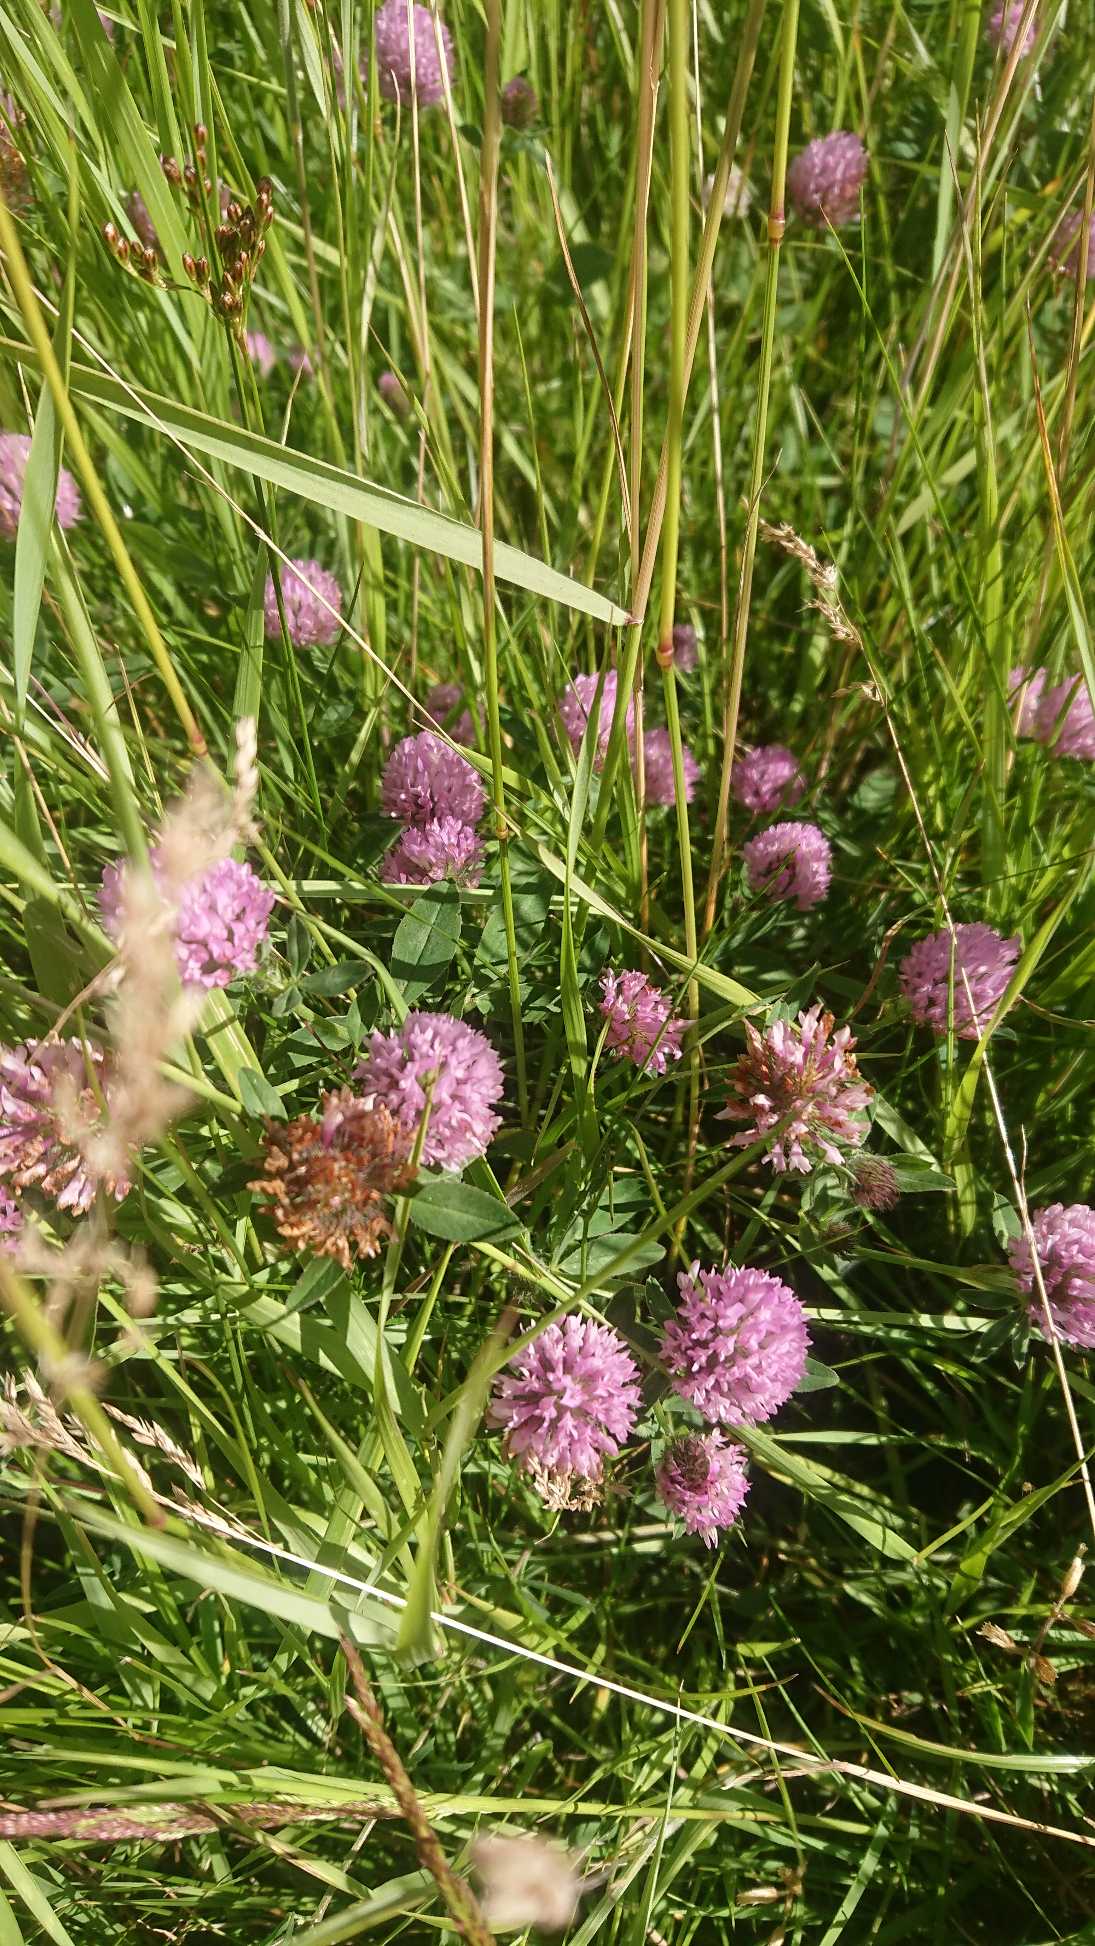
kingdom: Plantae
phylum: Tracheophyta
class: Magnoliopsida
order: Fabales
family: Fabaceae
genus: Trifolium
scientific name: Trifolium pratense
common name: Rød-kløver
